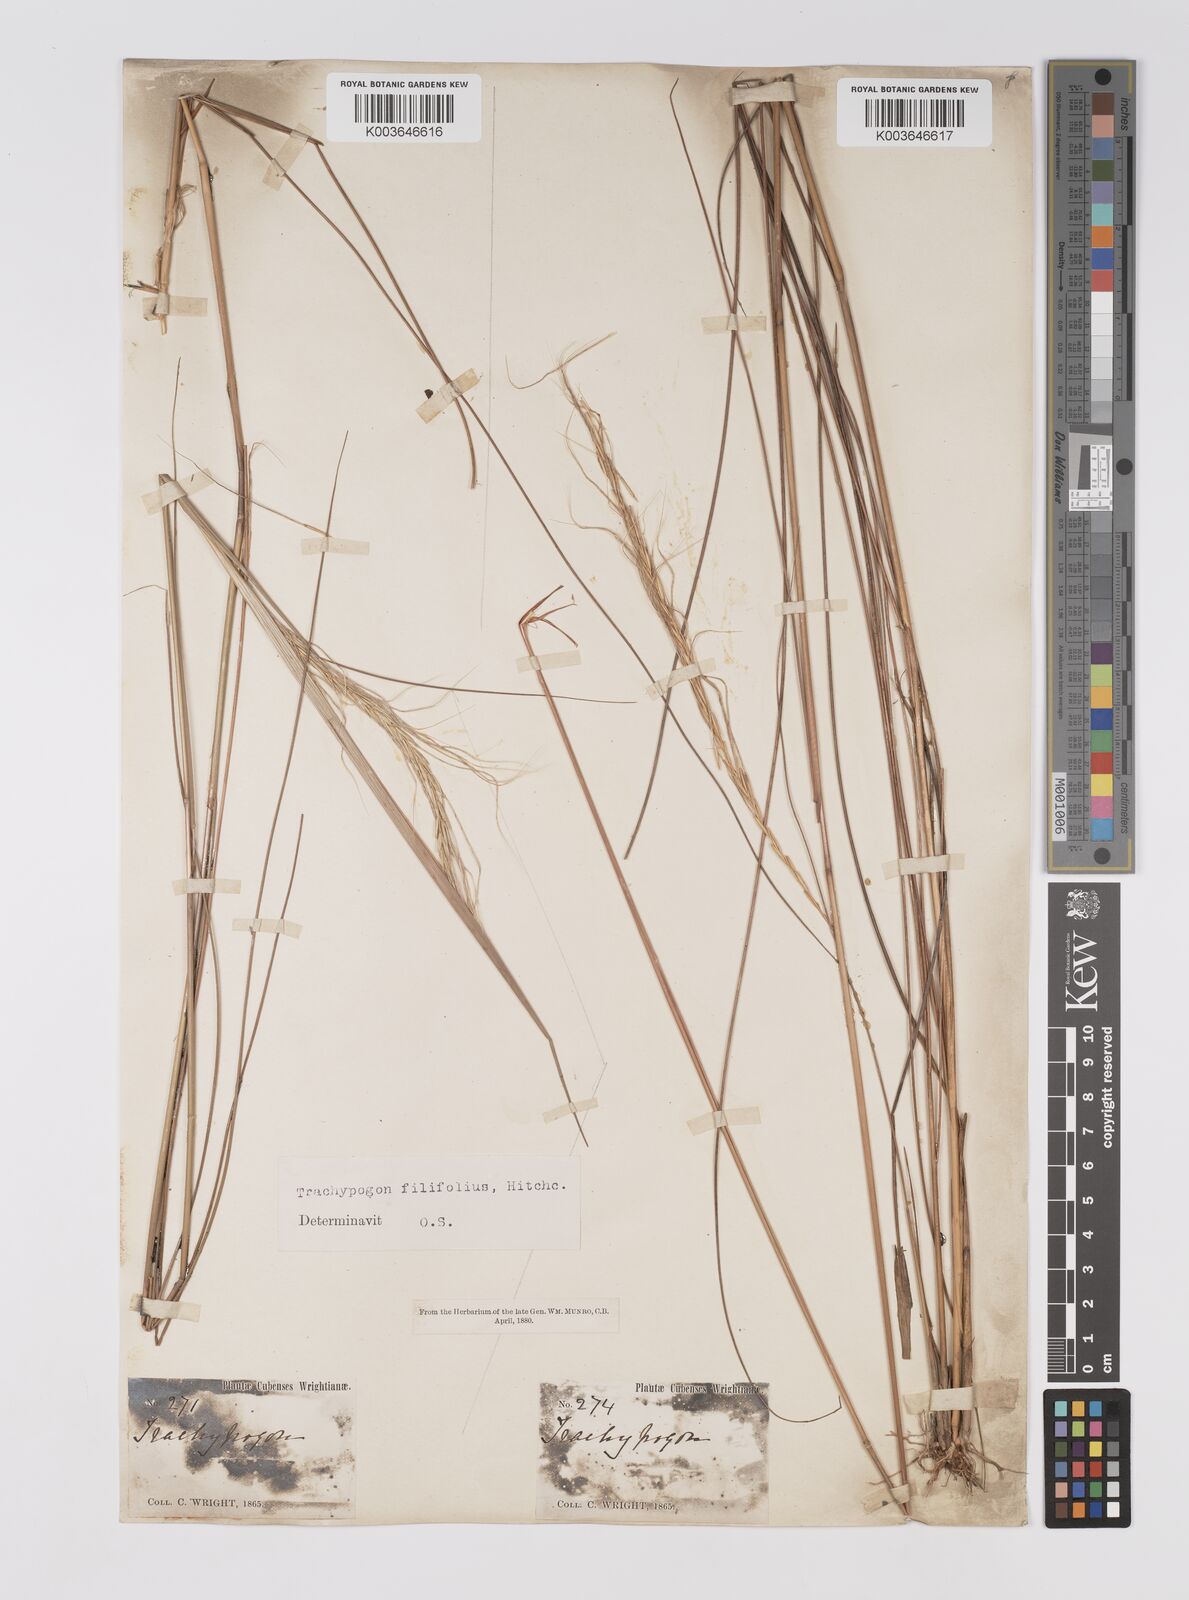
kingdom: Plantae
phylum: Tracheophyta
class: Liliopsida
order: Poales
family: Poaceae
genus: Trachypogon
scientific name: Trachypogon macroglossus
